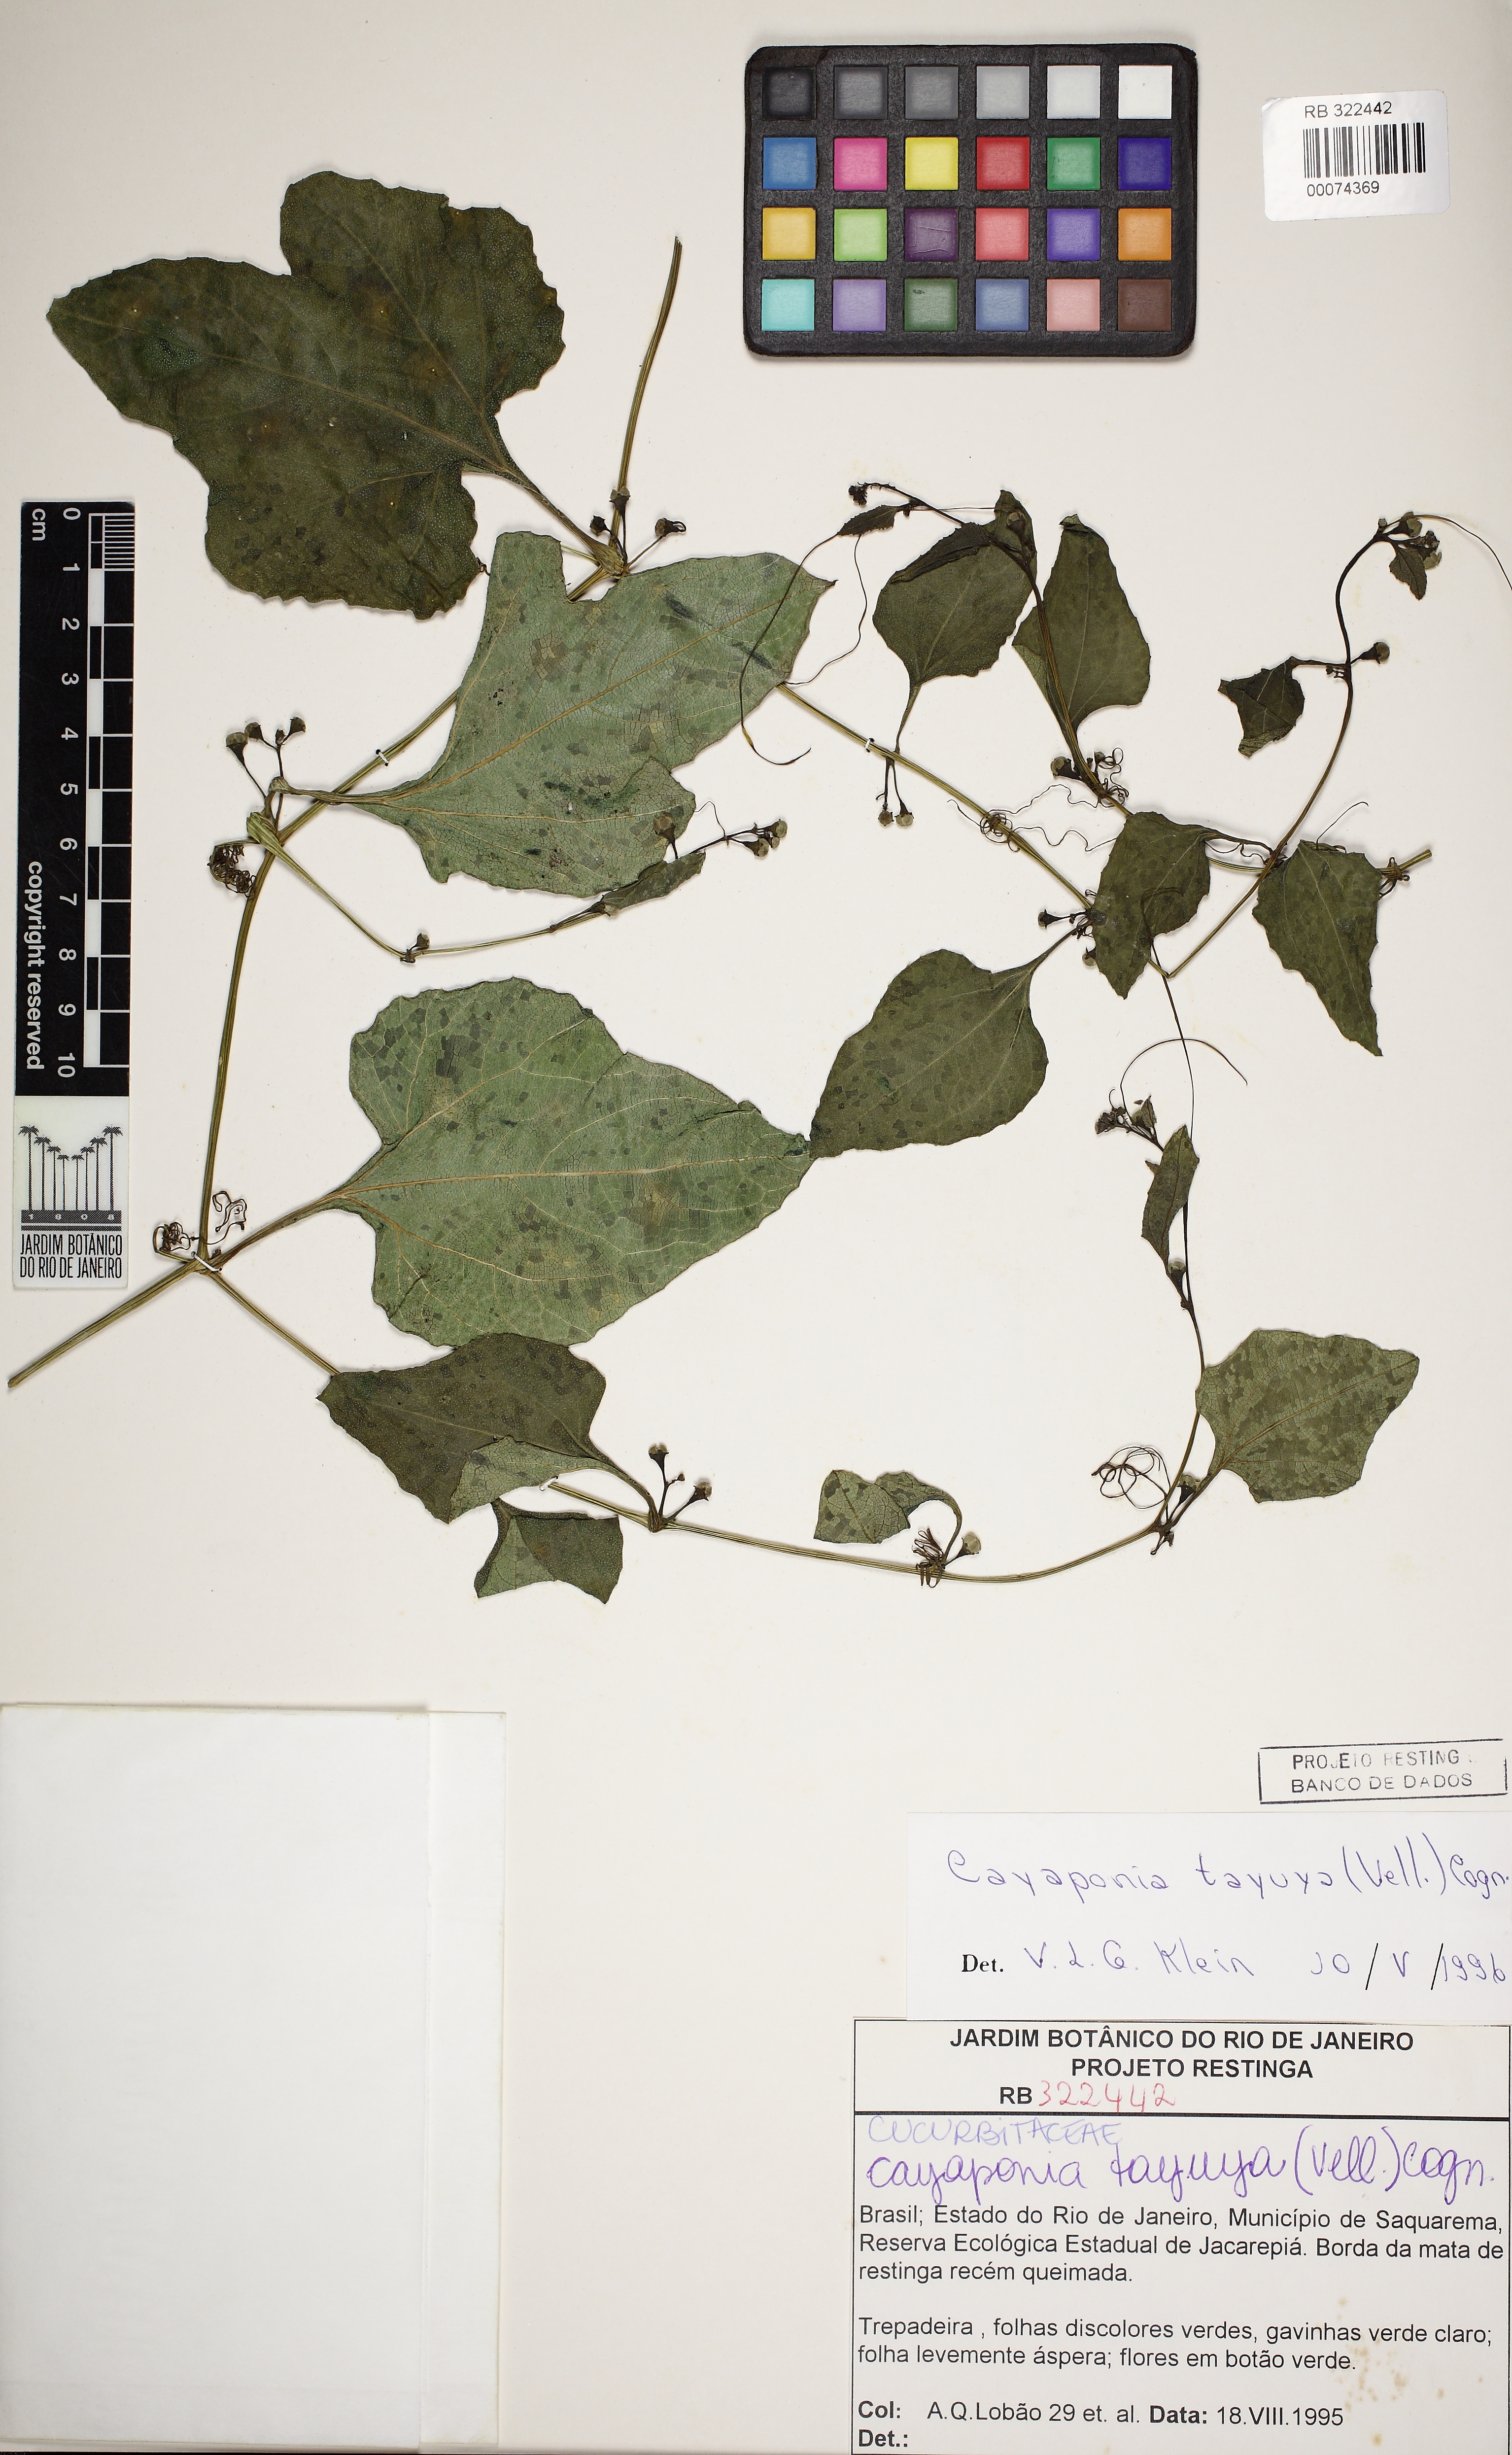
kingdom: Plantae
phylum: Tracheophyta
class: Magnoliopsida
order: Cucurbitales
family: Cucurbitaceae
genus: Cayaponia
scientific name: Cayaponia tayuya
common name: Tayuya
